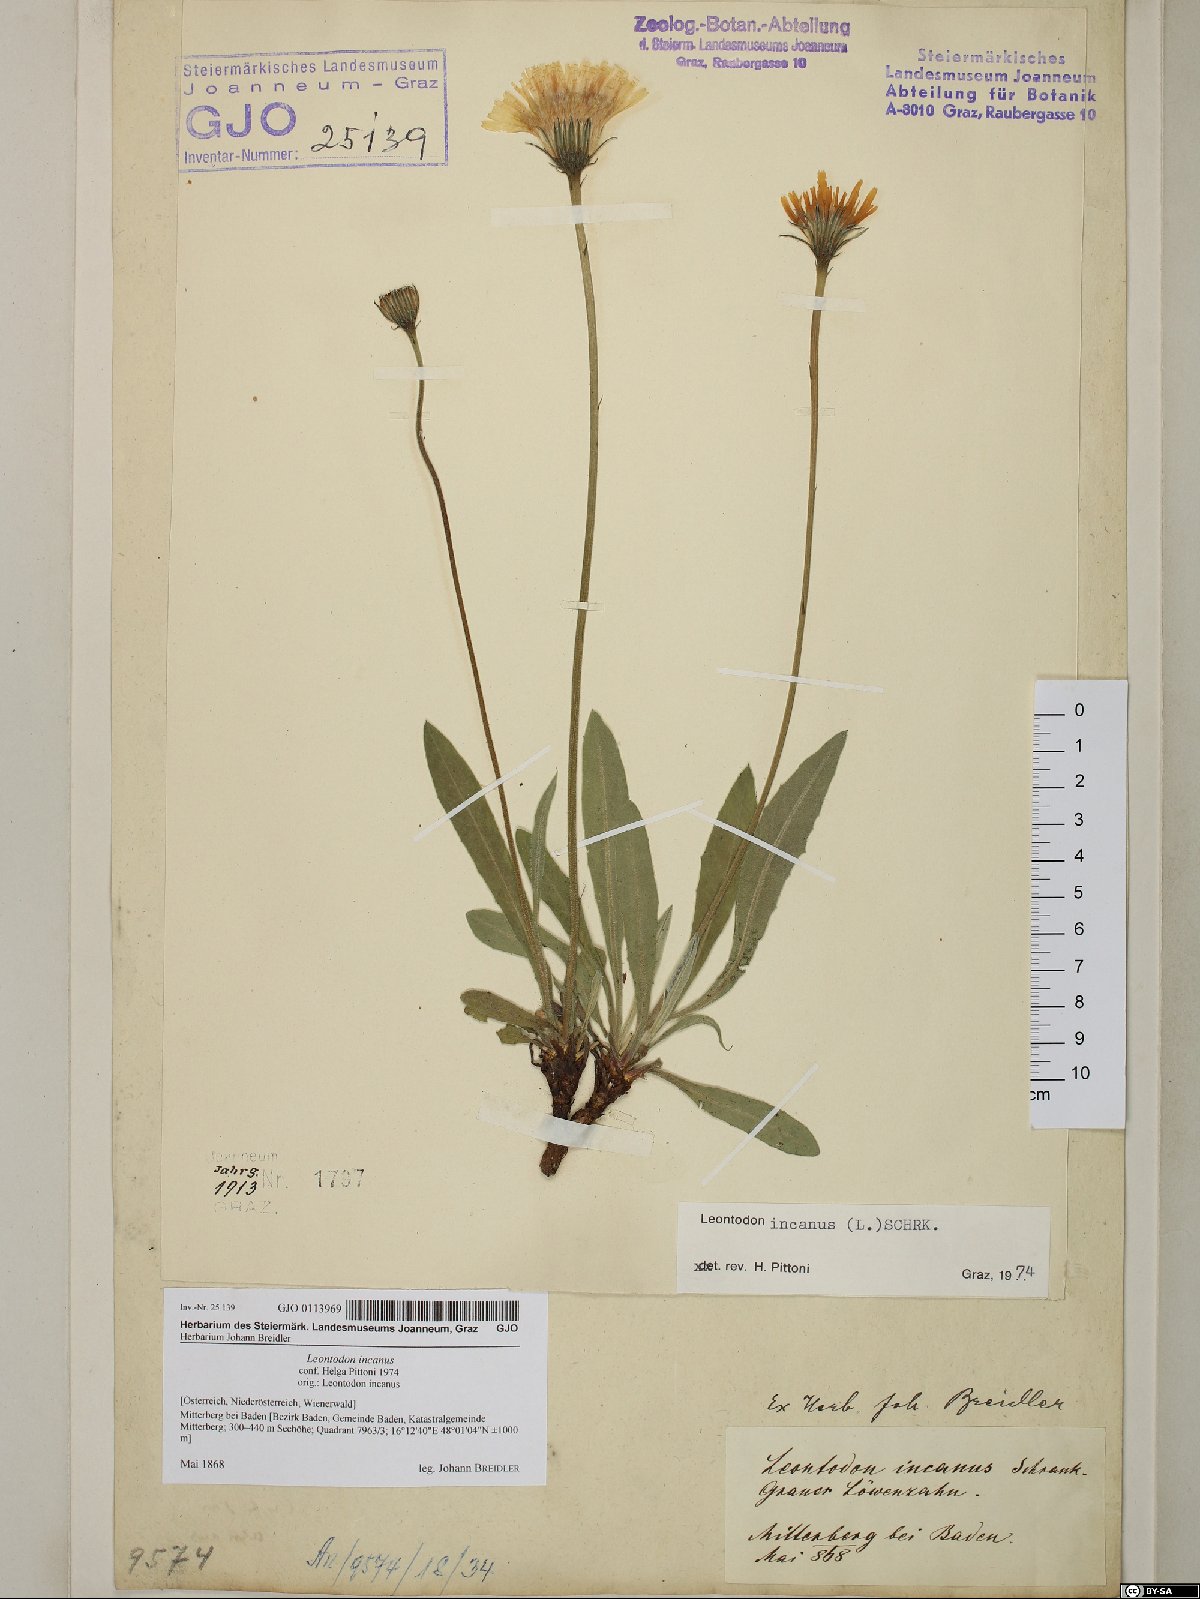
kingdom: Plantae
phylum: Tracheophyta
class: Magnoliopsida
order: Asterales
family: Asteraceae
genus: Leontodon
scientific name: Leontodon incanus
